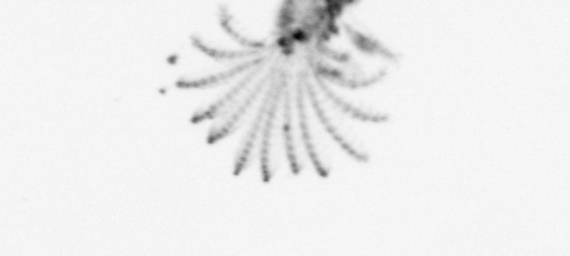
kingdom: Animalia
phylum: Arthropoda
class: Maxillopoda
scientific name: Maxillopoda
